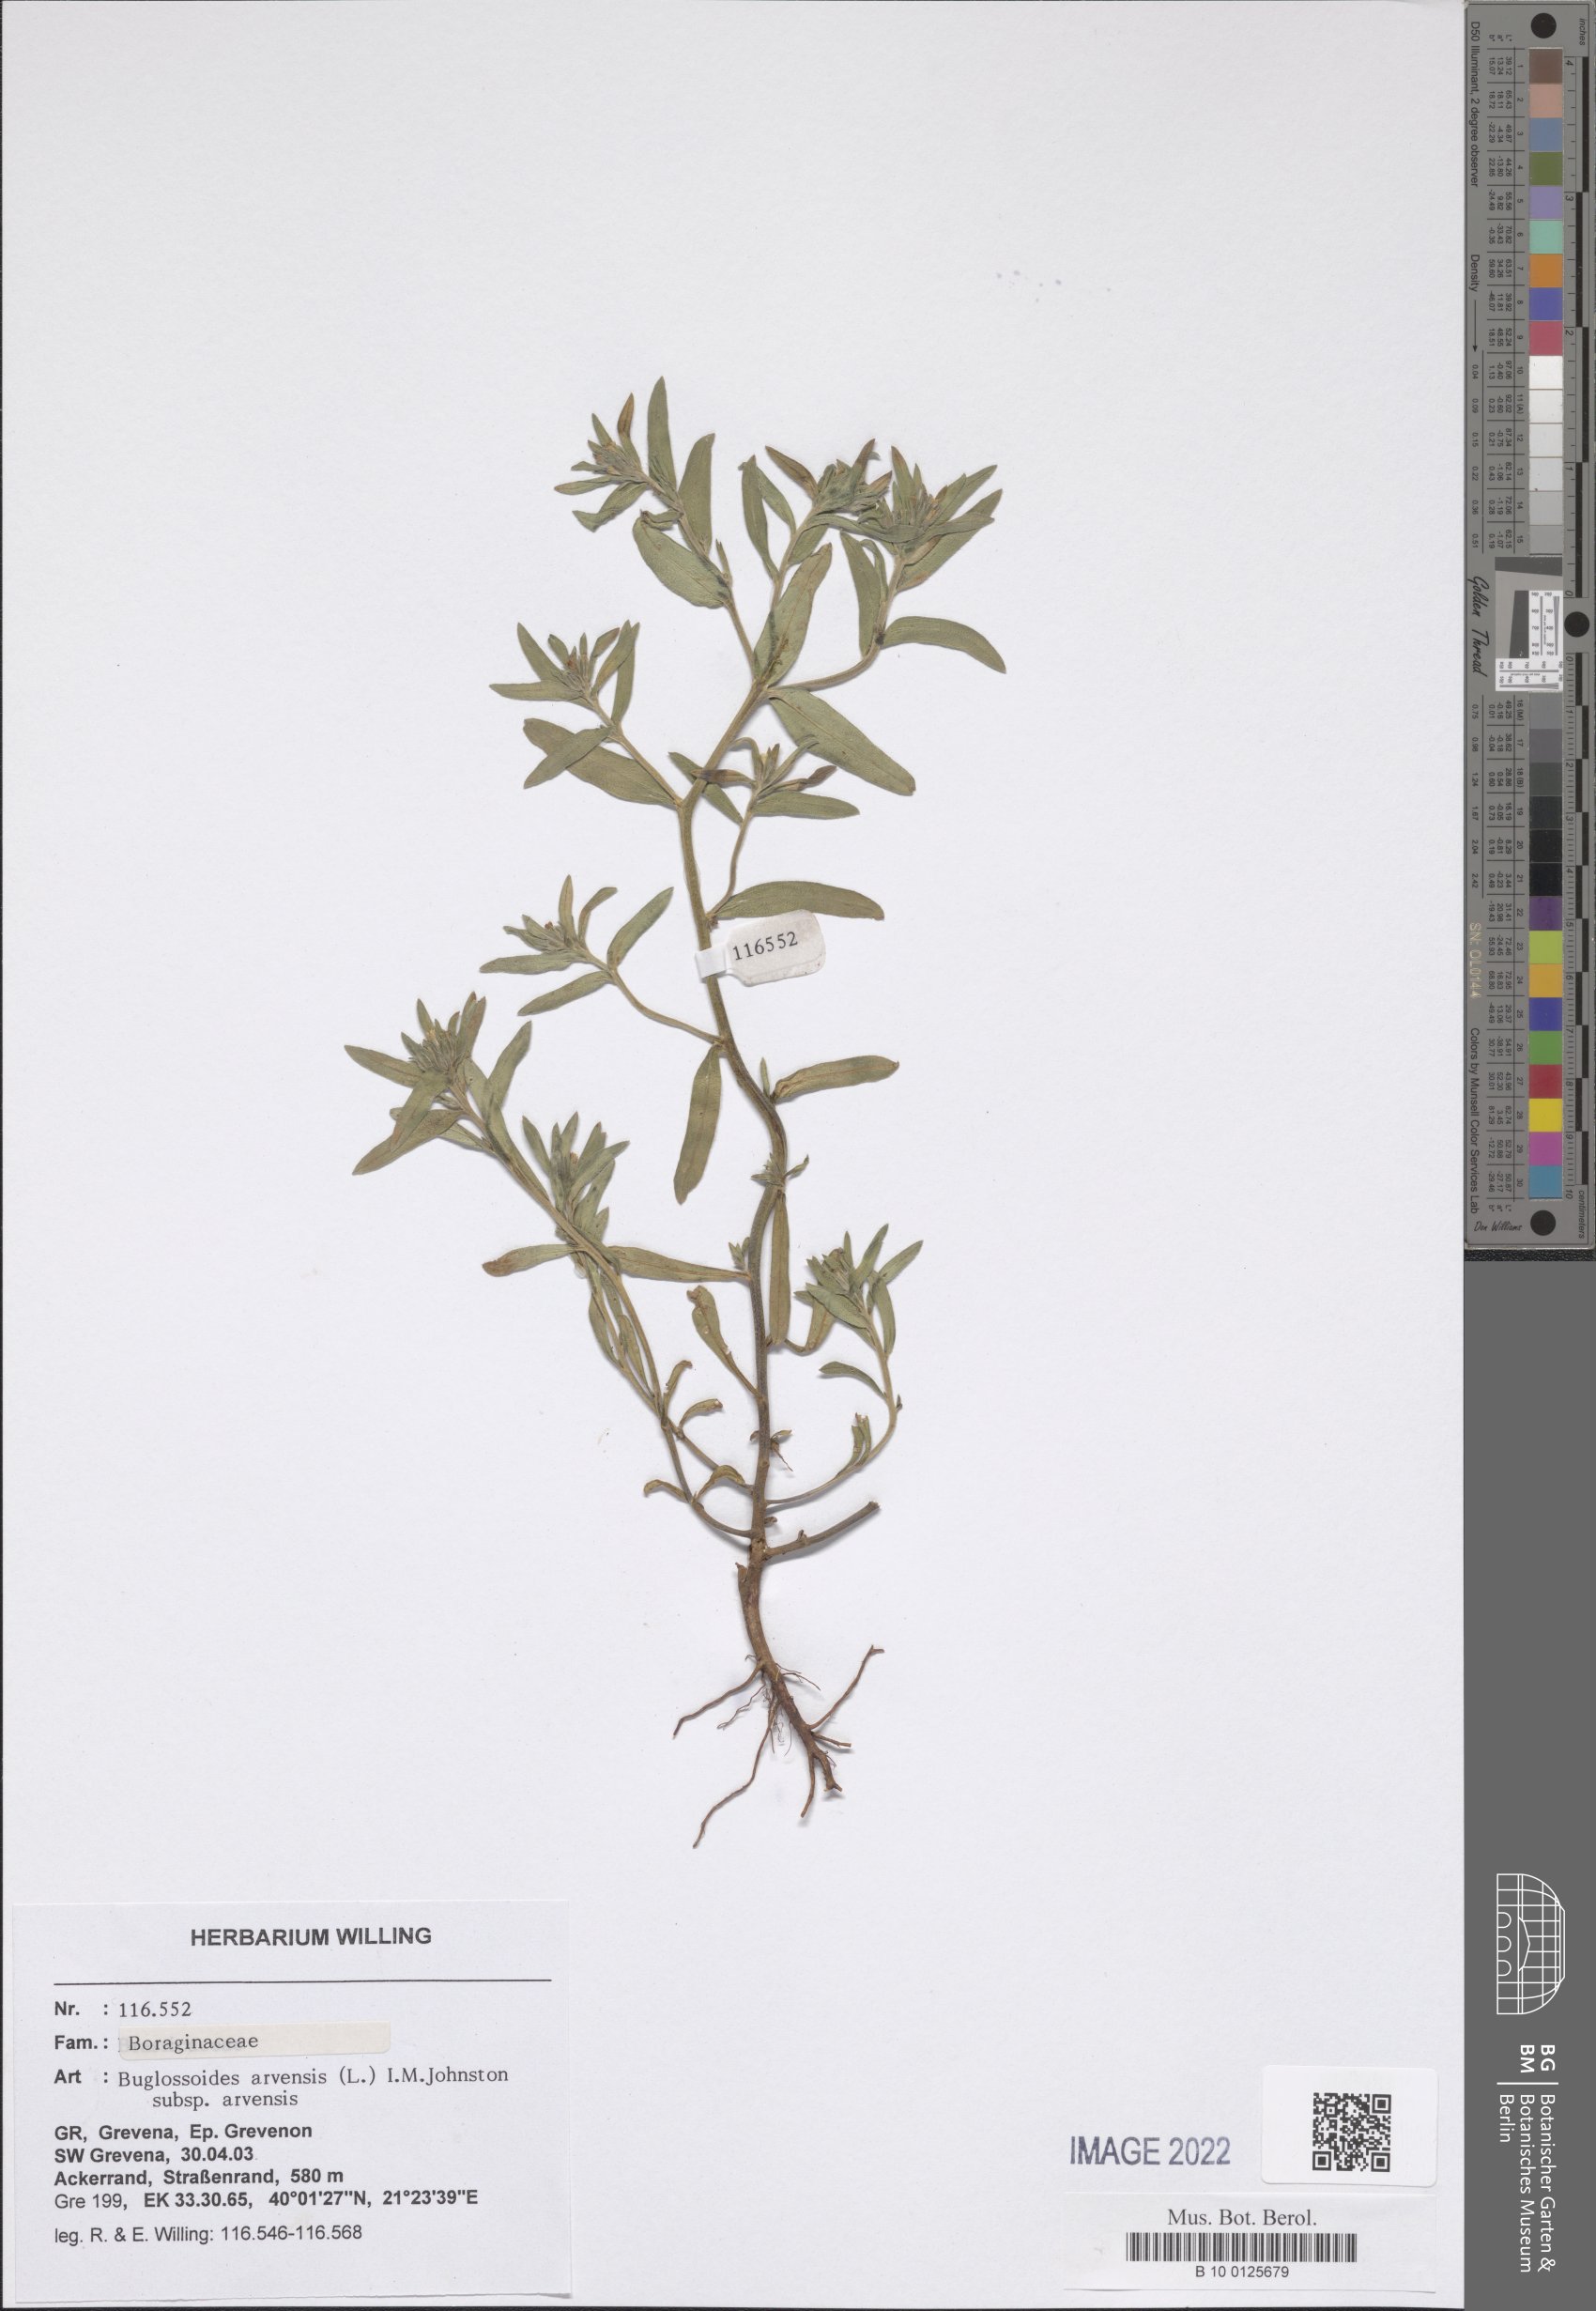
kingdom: Plantae
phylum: Tracheophyta
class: Magnoliopsida
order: Boraginales
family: Boraginaceae
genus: Buglossoides
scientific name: Buglossoides arvensis
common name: Corn gromwell
